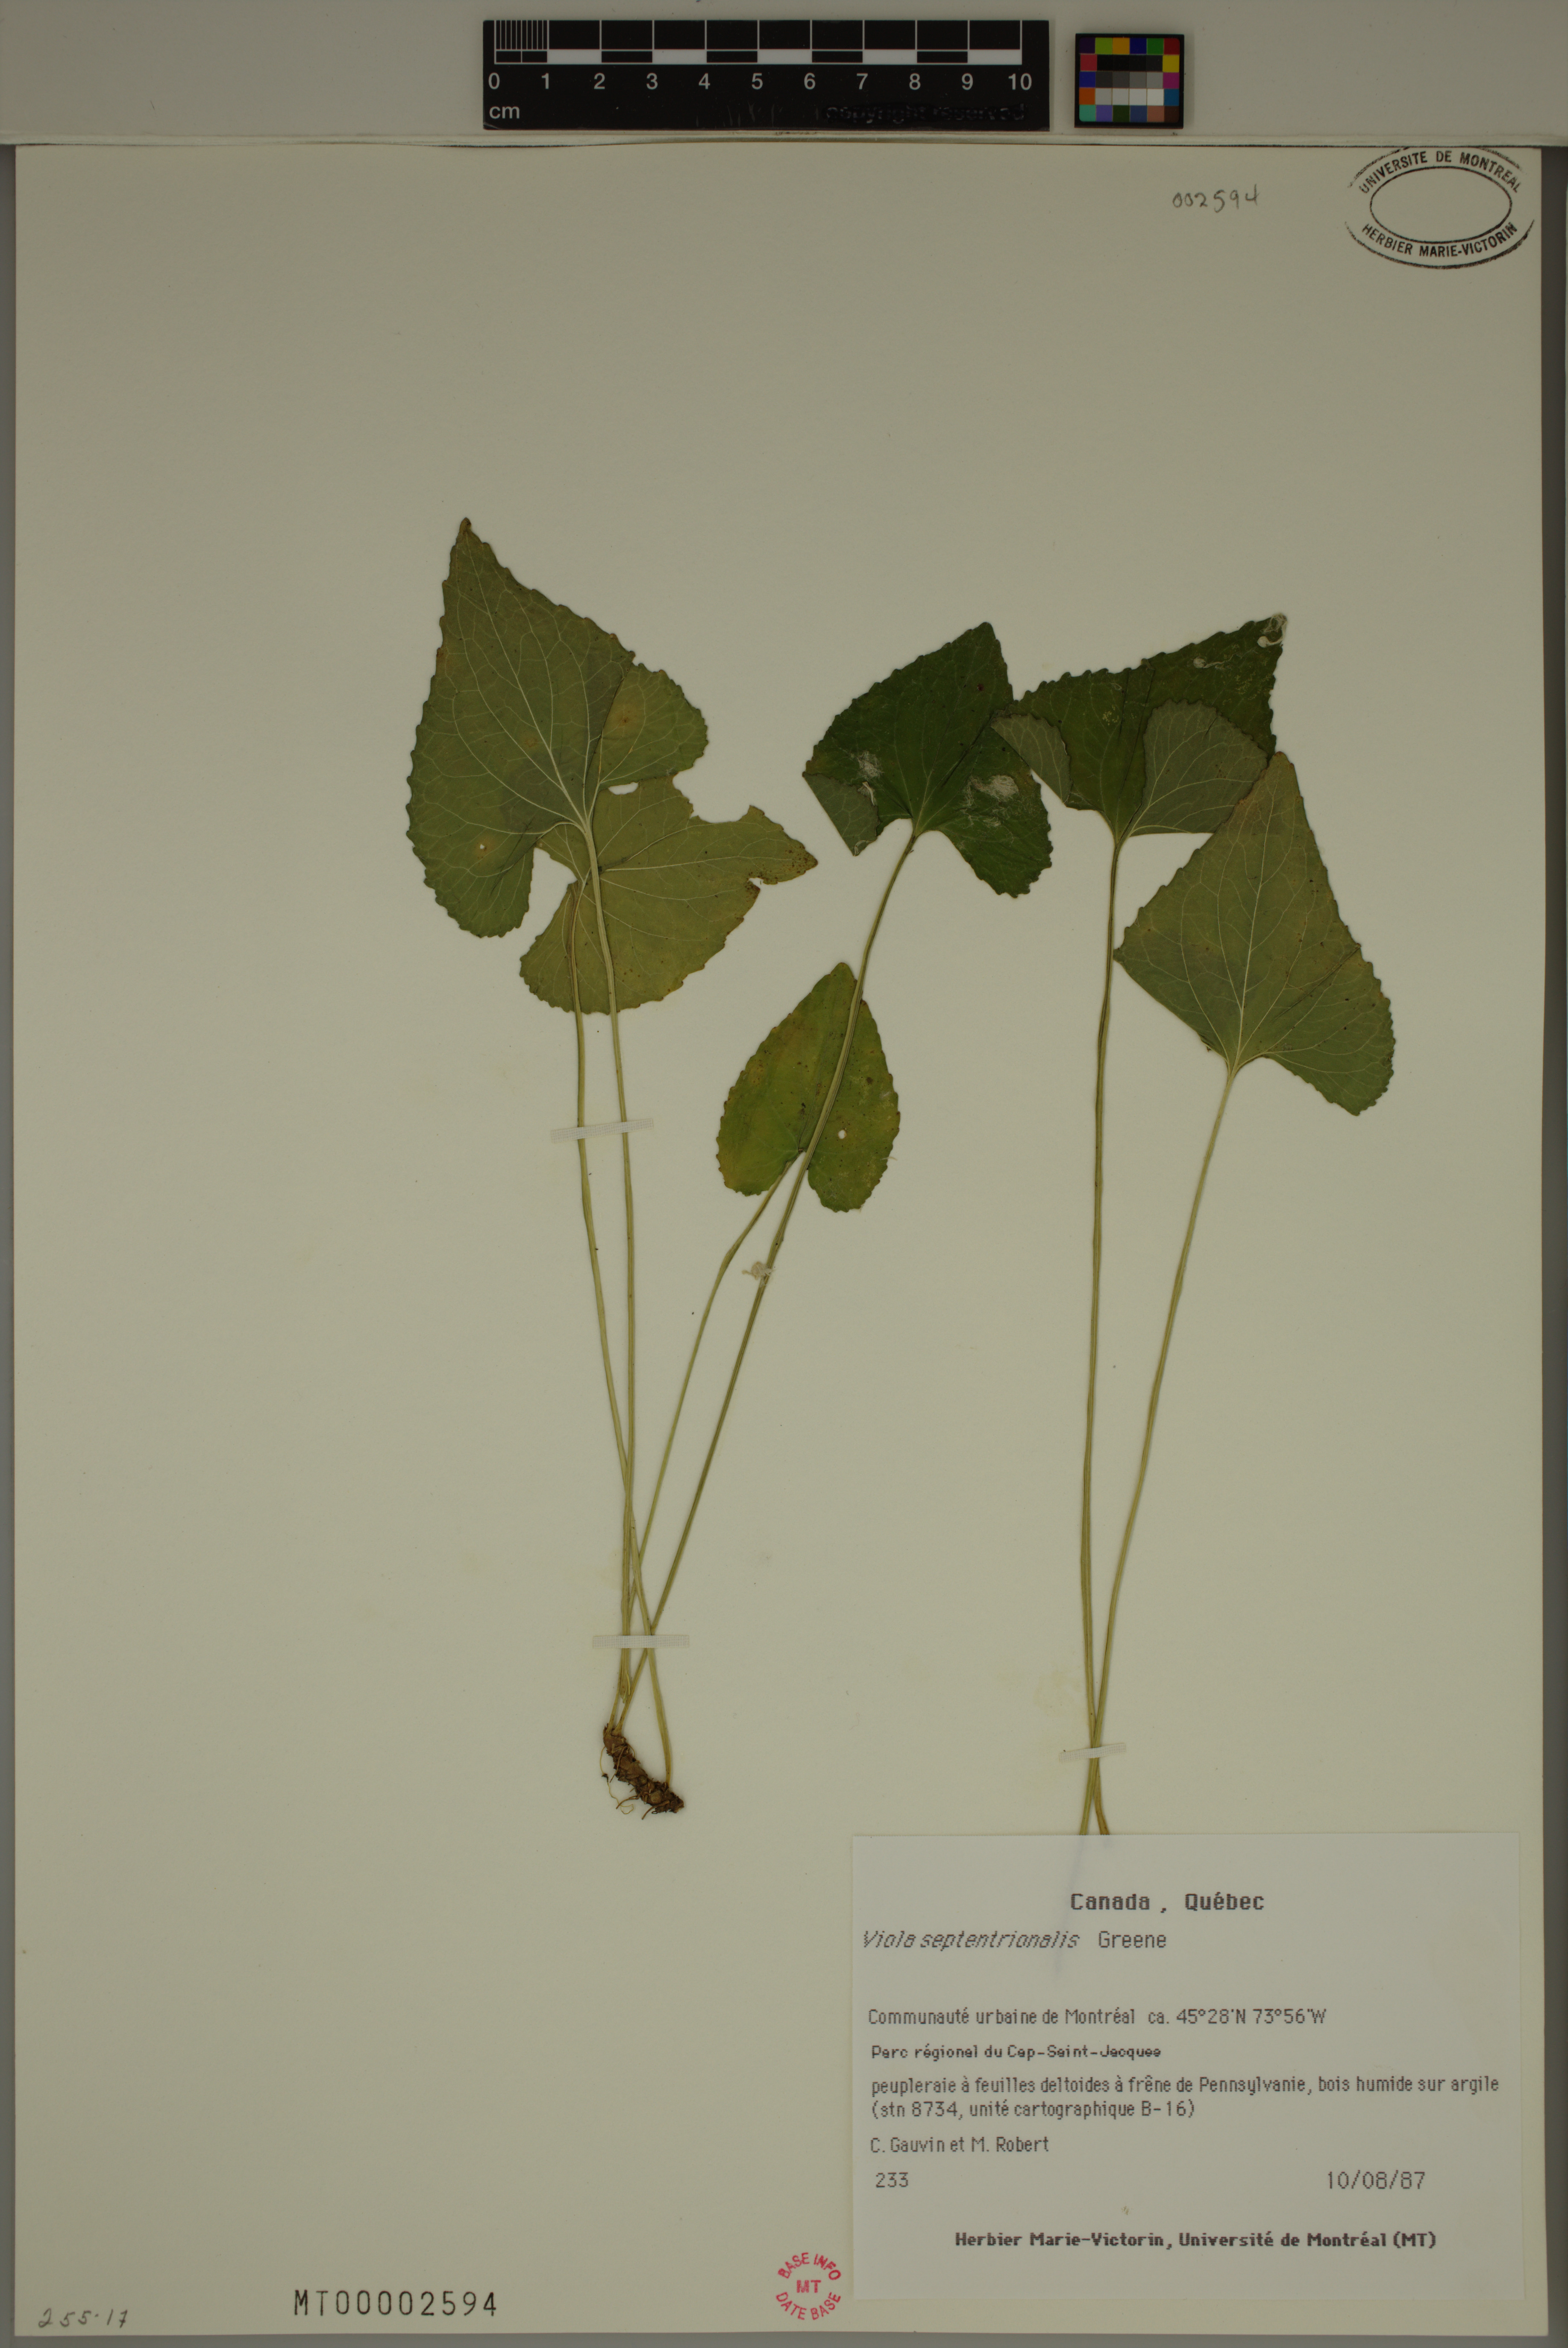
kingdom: Plantae
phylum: Tracheophyta
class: Magnoliopsida
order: Malpighiales
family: Violaceae
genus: Viola
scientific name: Viola sororia
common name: Dooryard violet
